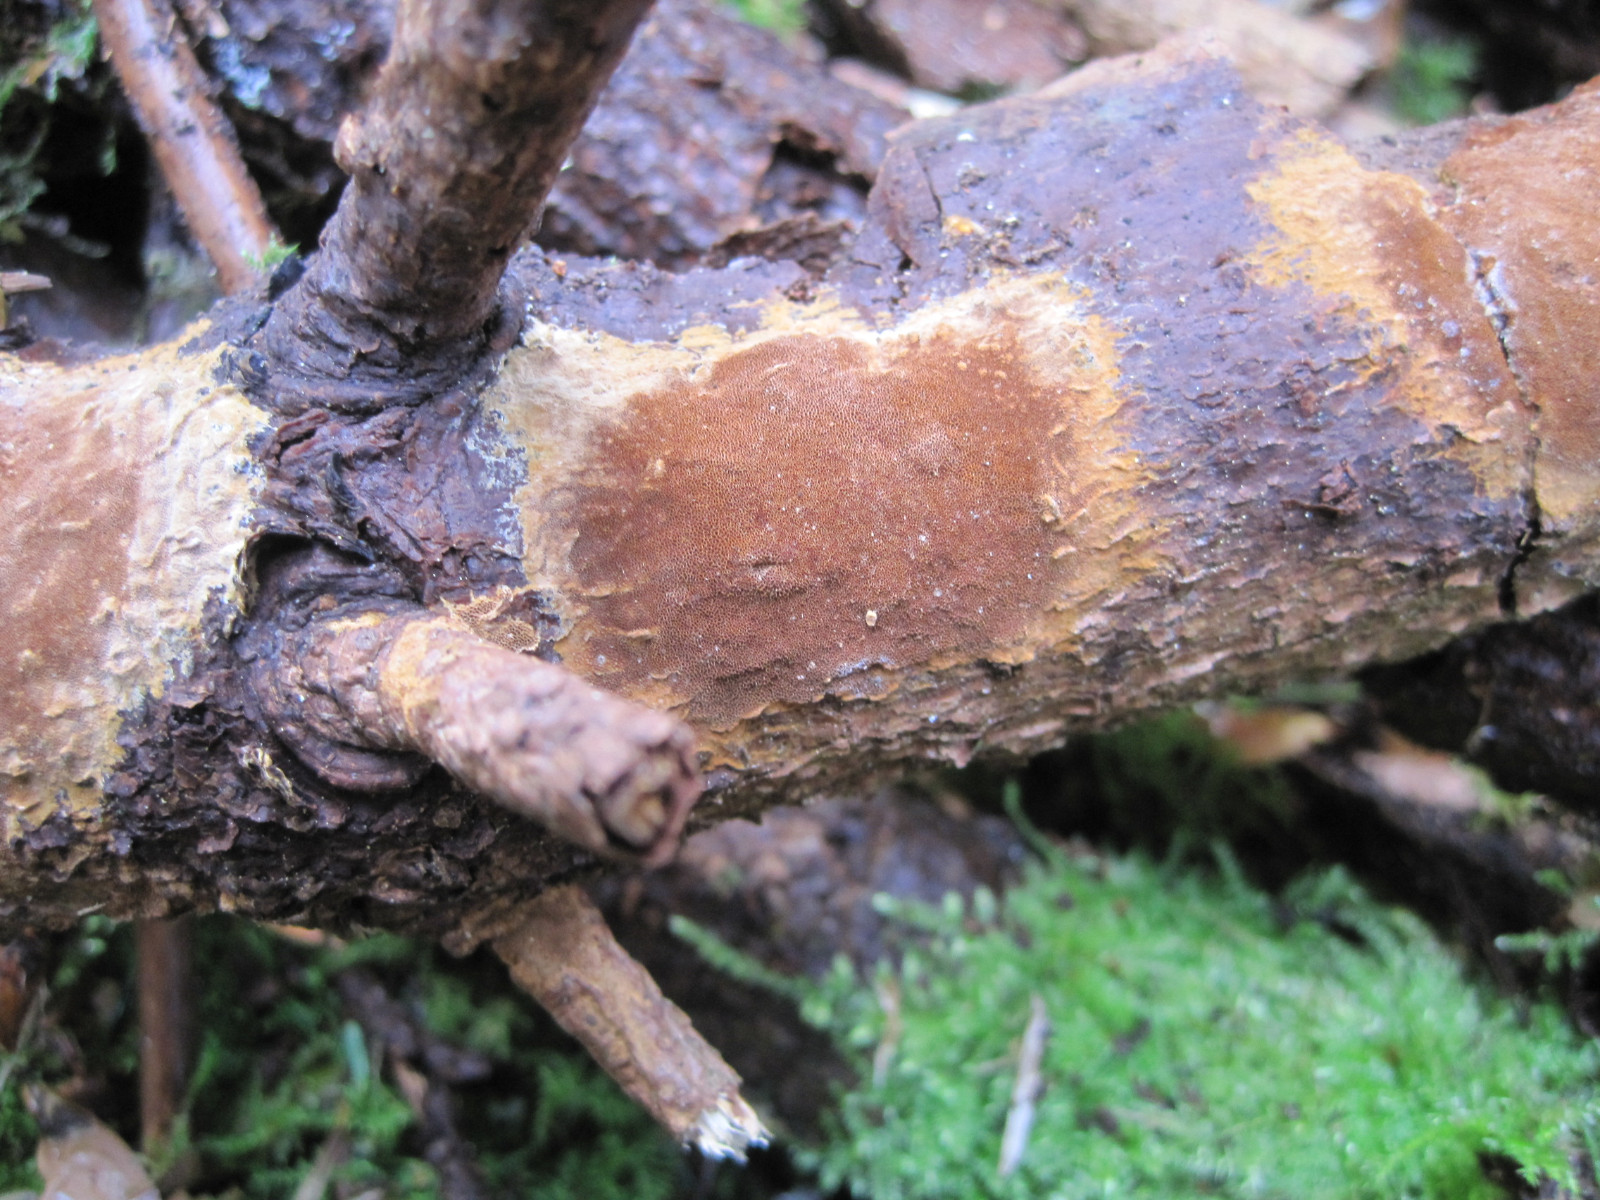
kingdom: Fungi
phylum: Basidiomycota
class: Agaricomycetes
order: Hymenochaetales
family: Hymenochaetaceae
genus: Fuscoporia
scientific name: Fuscoporia ferruginosa
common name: rustbrun ildporesvamp
